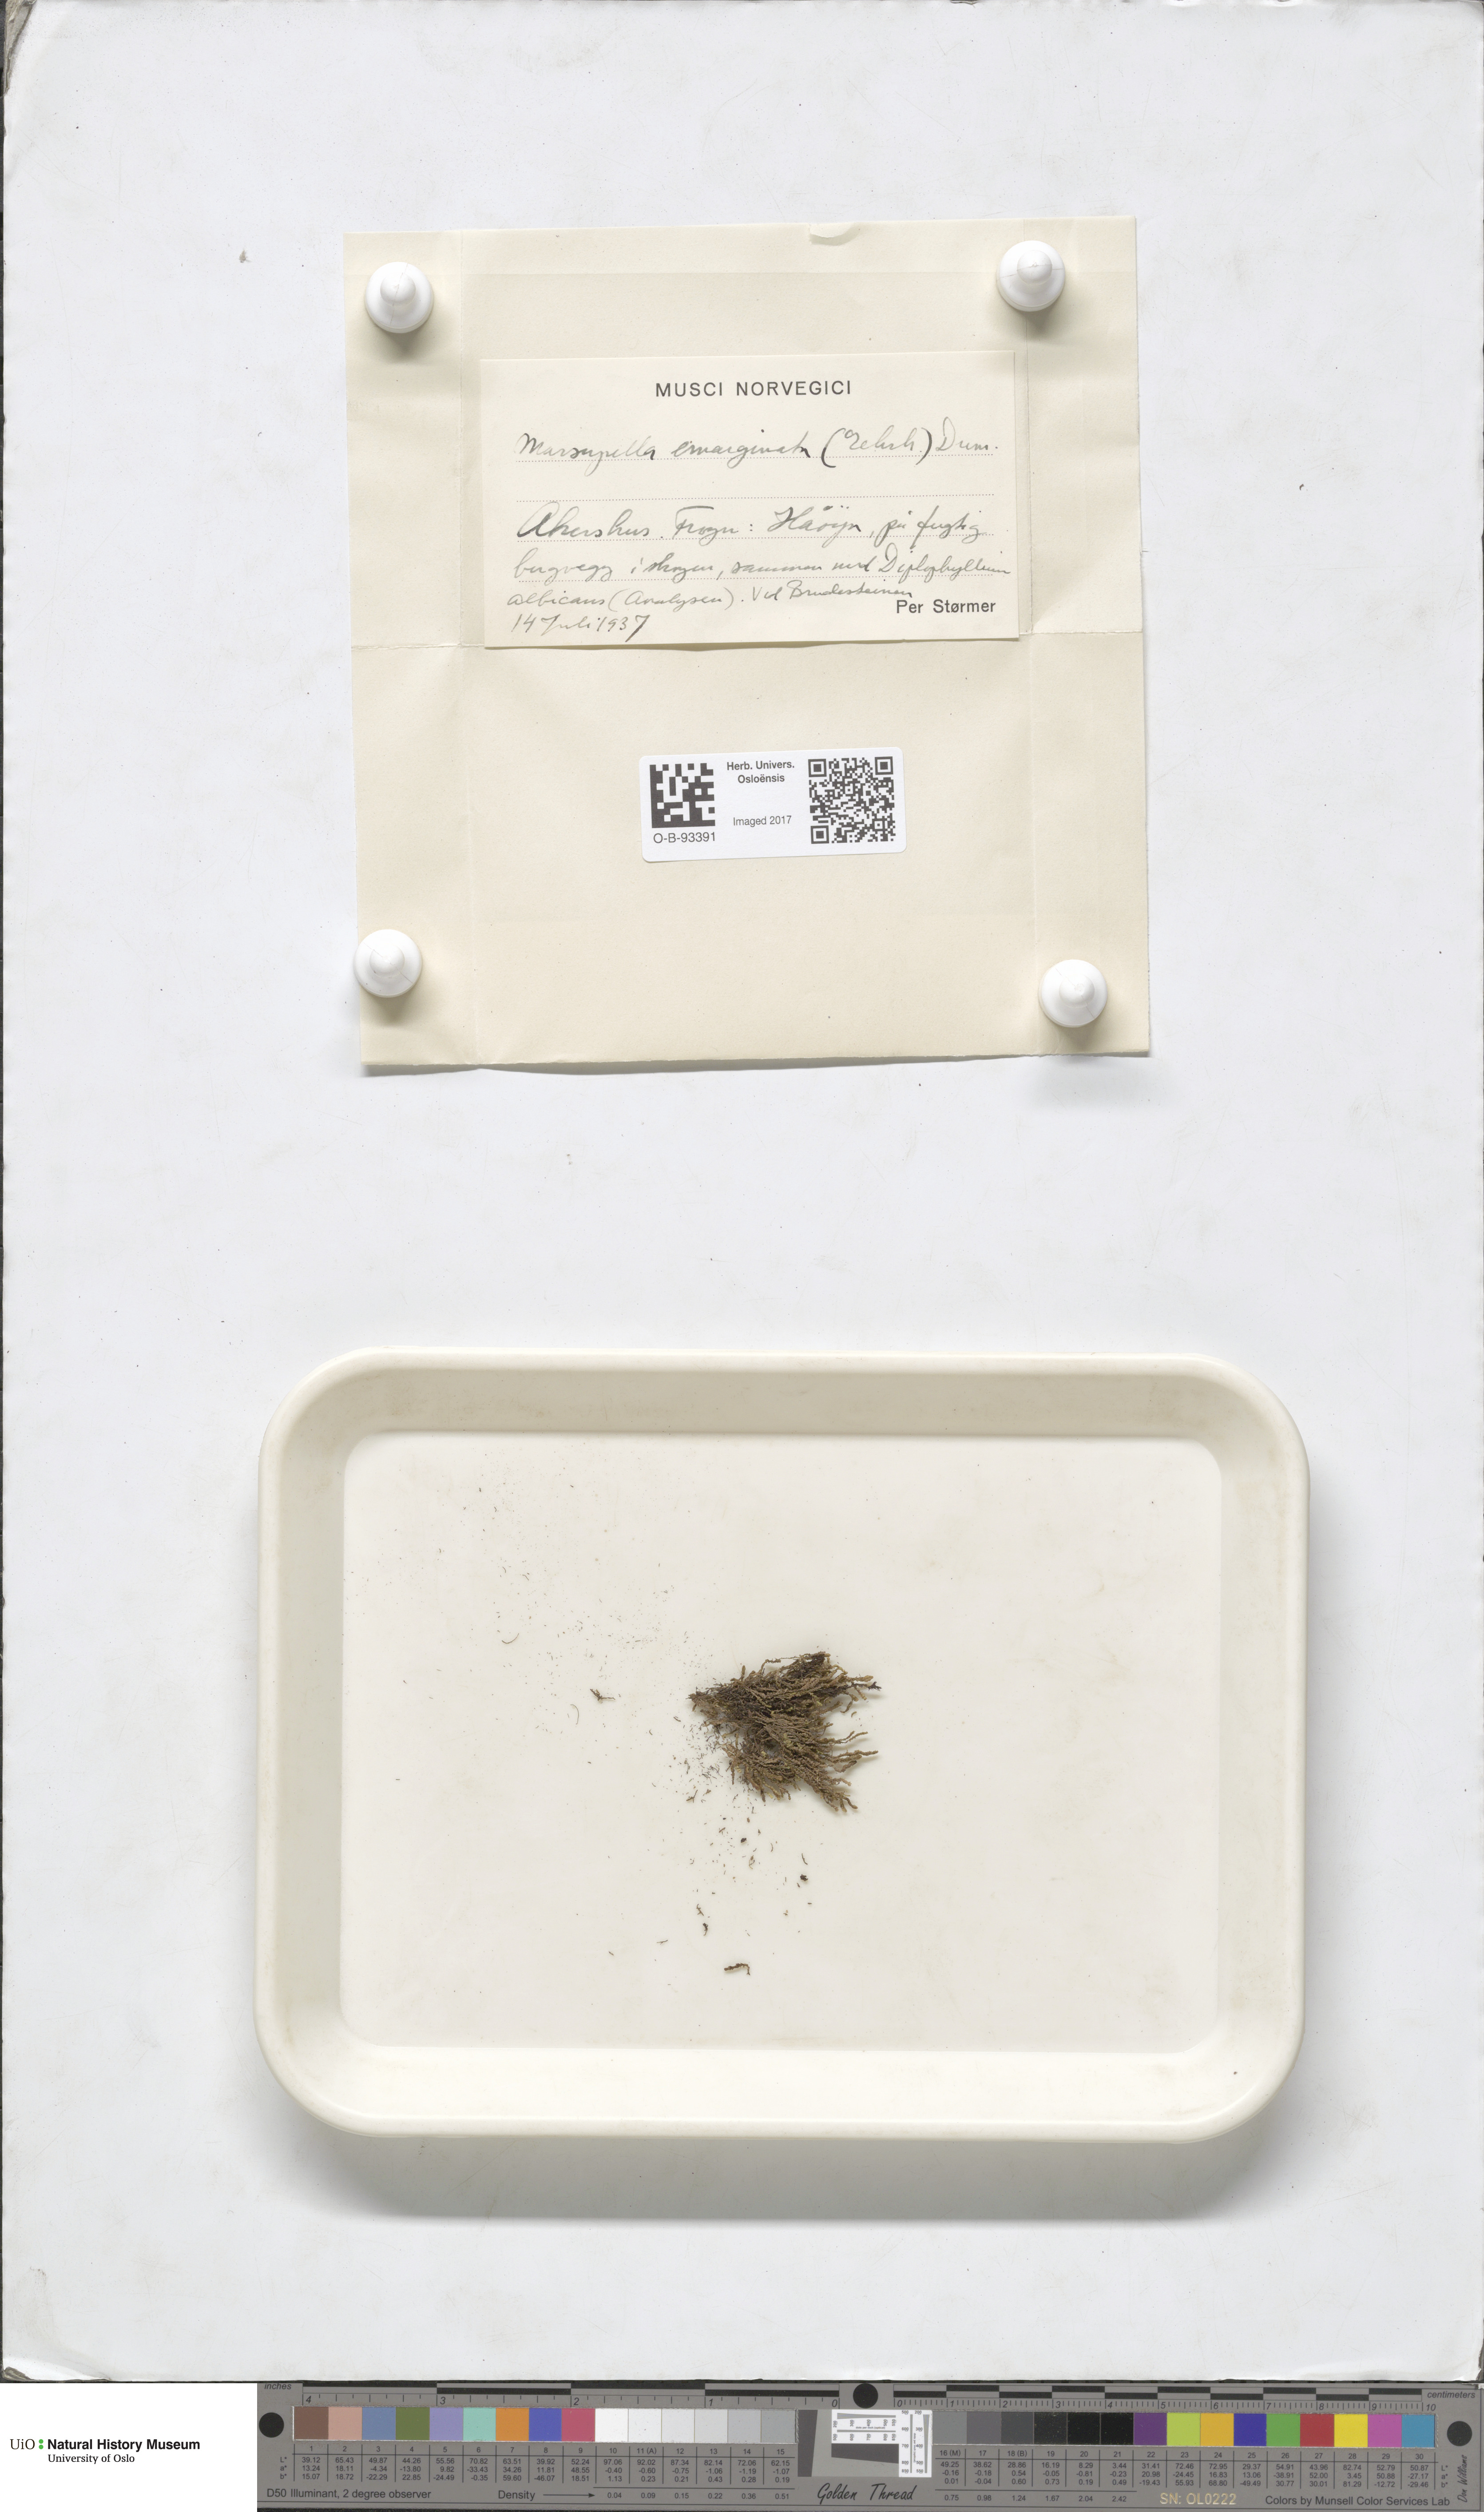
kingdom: Plantae
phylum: Marchantiophyta
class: Jungermanniopsida
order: Jungermanniales
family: Gymnomitriaceae
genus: Marsupella
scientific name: Marsupella emarginata
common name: Notched rustwort
